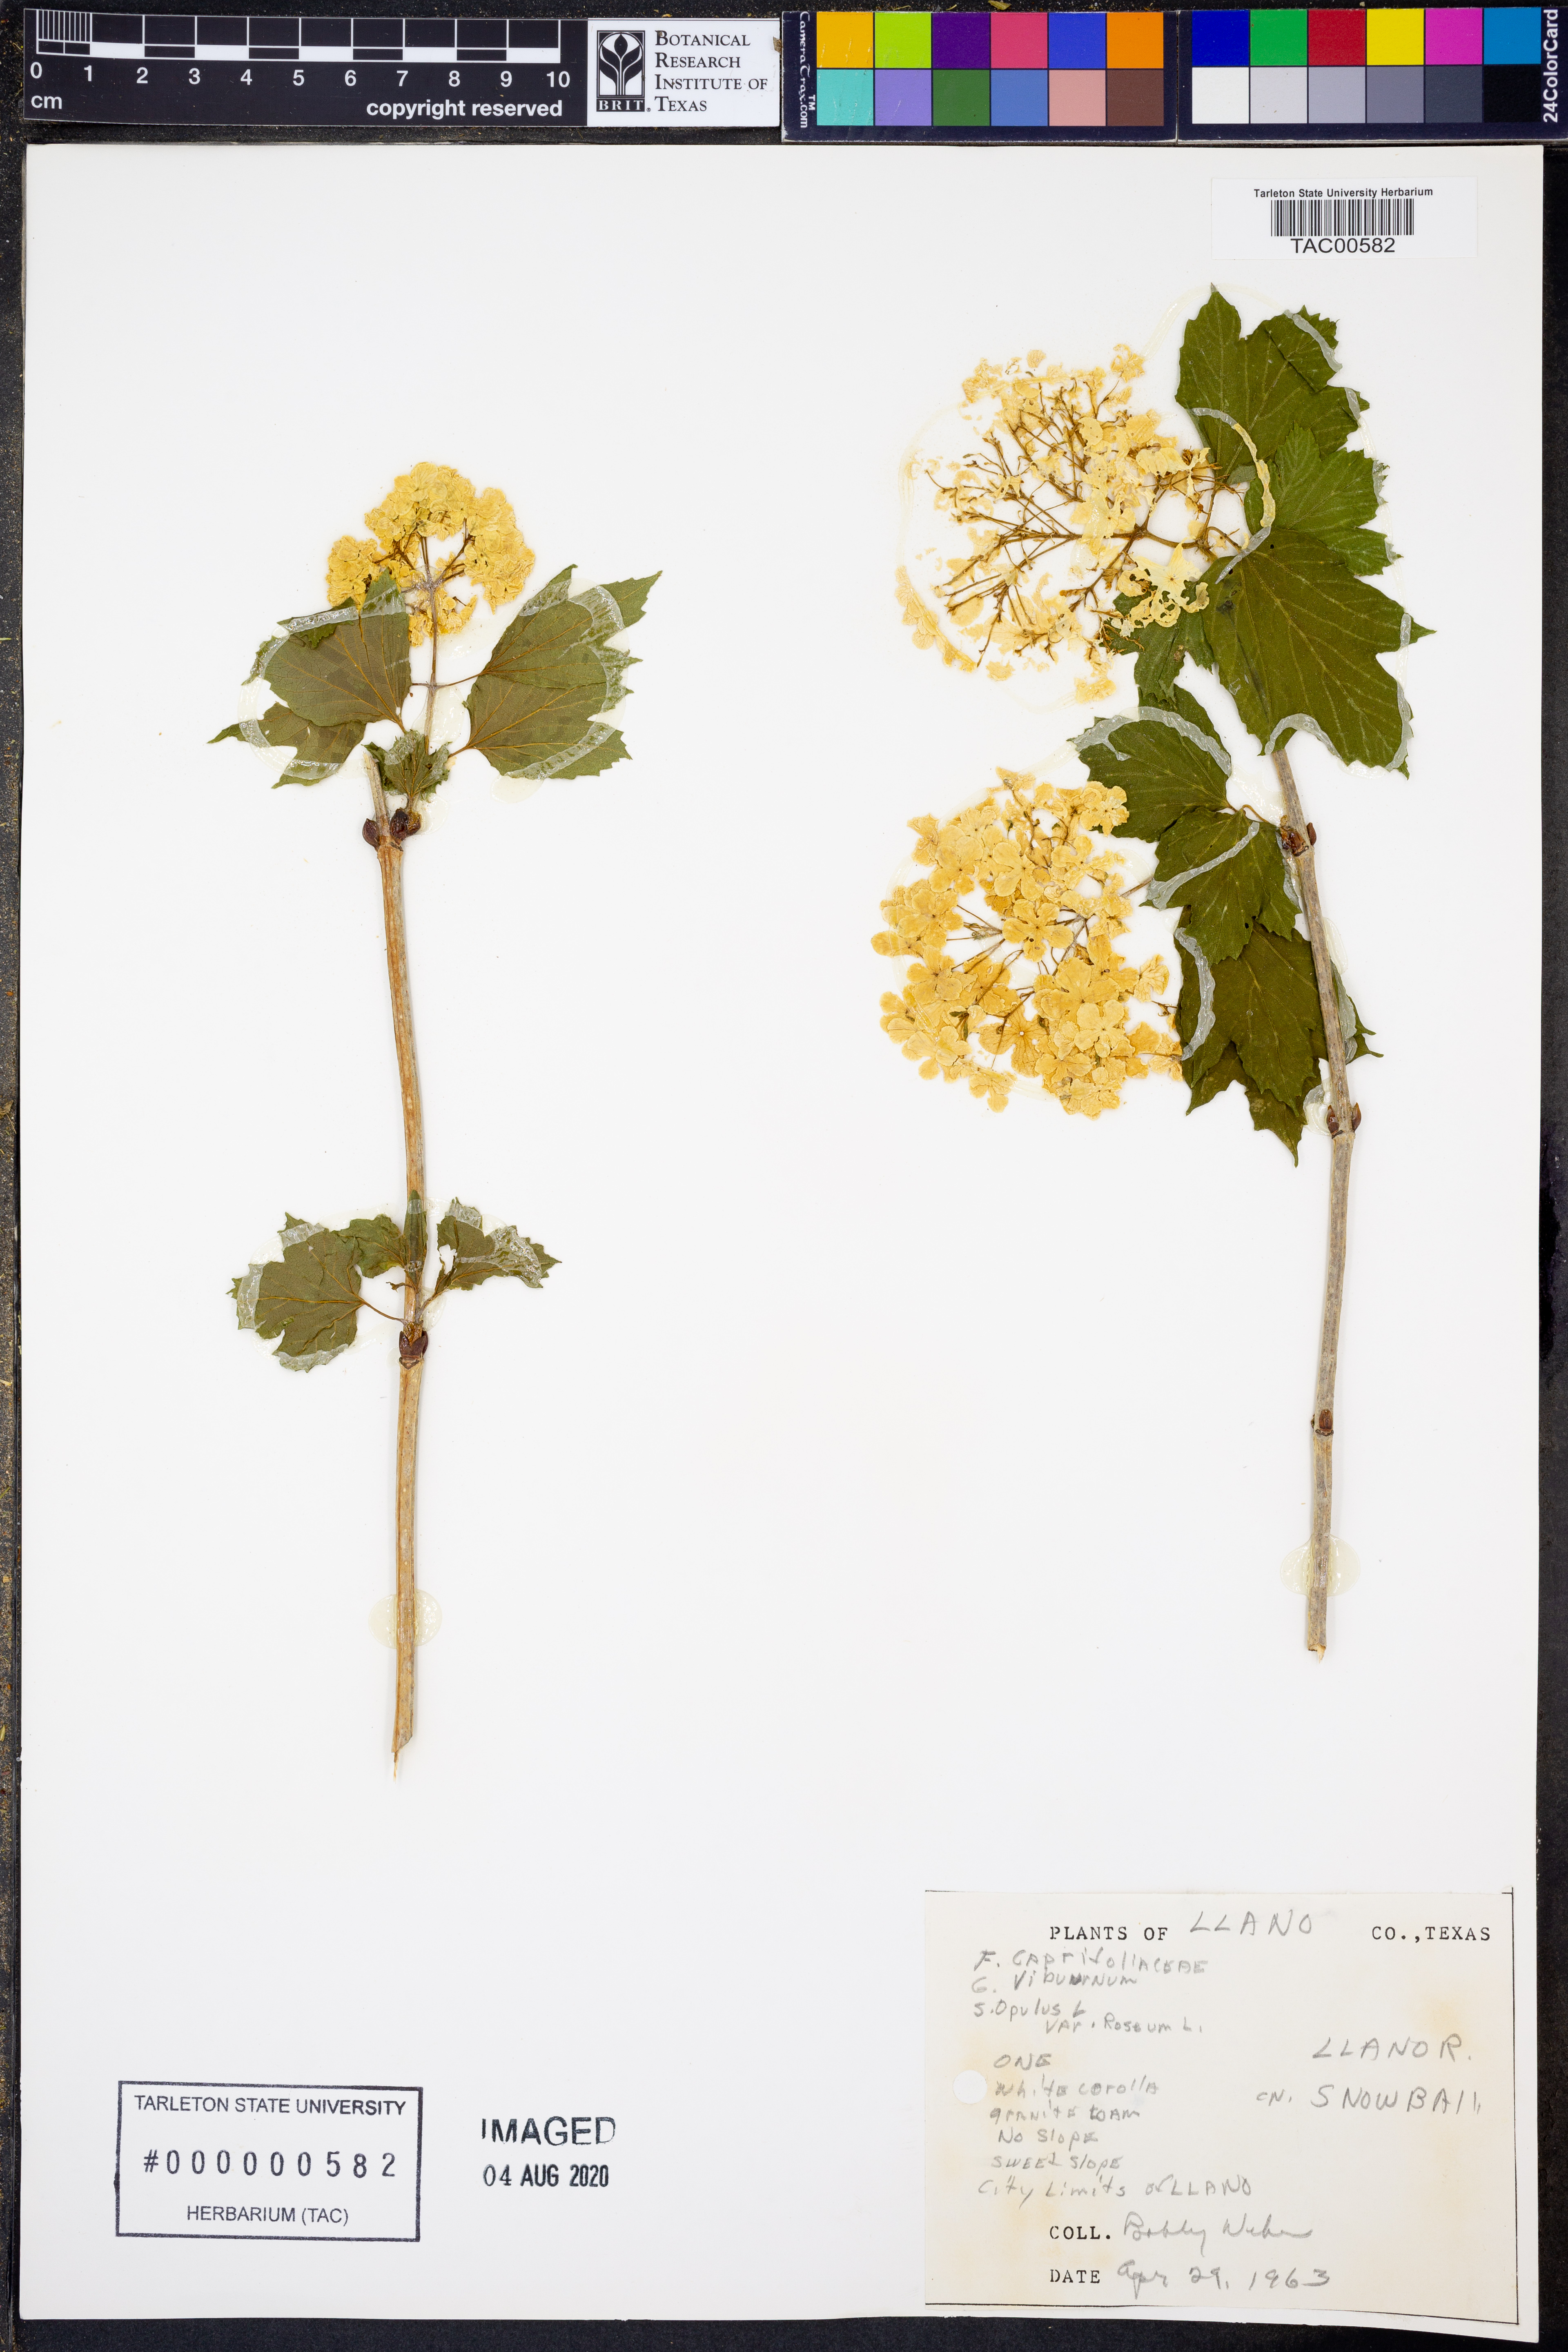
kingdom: Plantae
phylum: Tracheophyta
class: Magnoliopsida
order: Dipsacales
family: Viburnaceae
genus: Viburnum
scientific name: Viburnum opulus
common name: Guelder-rose
